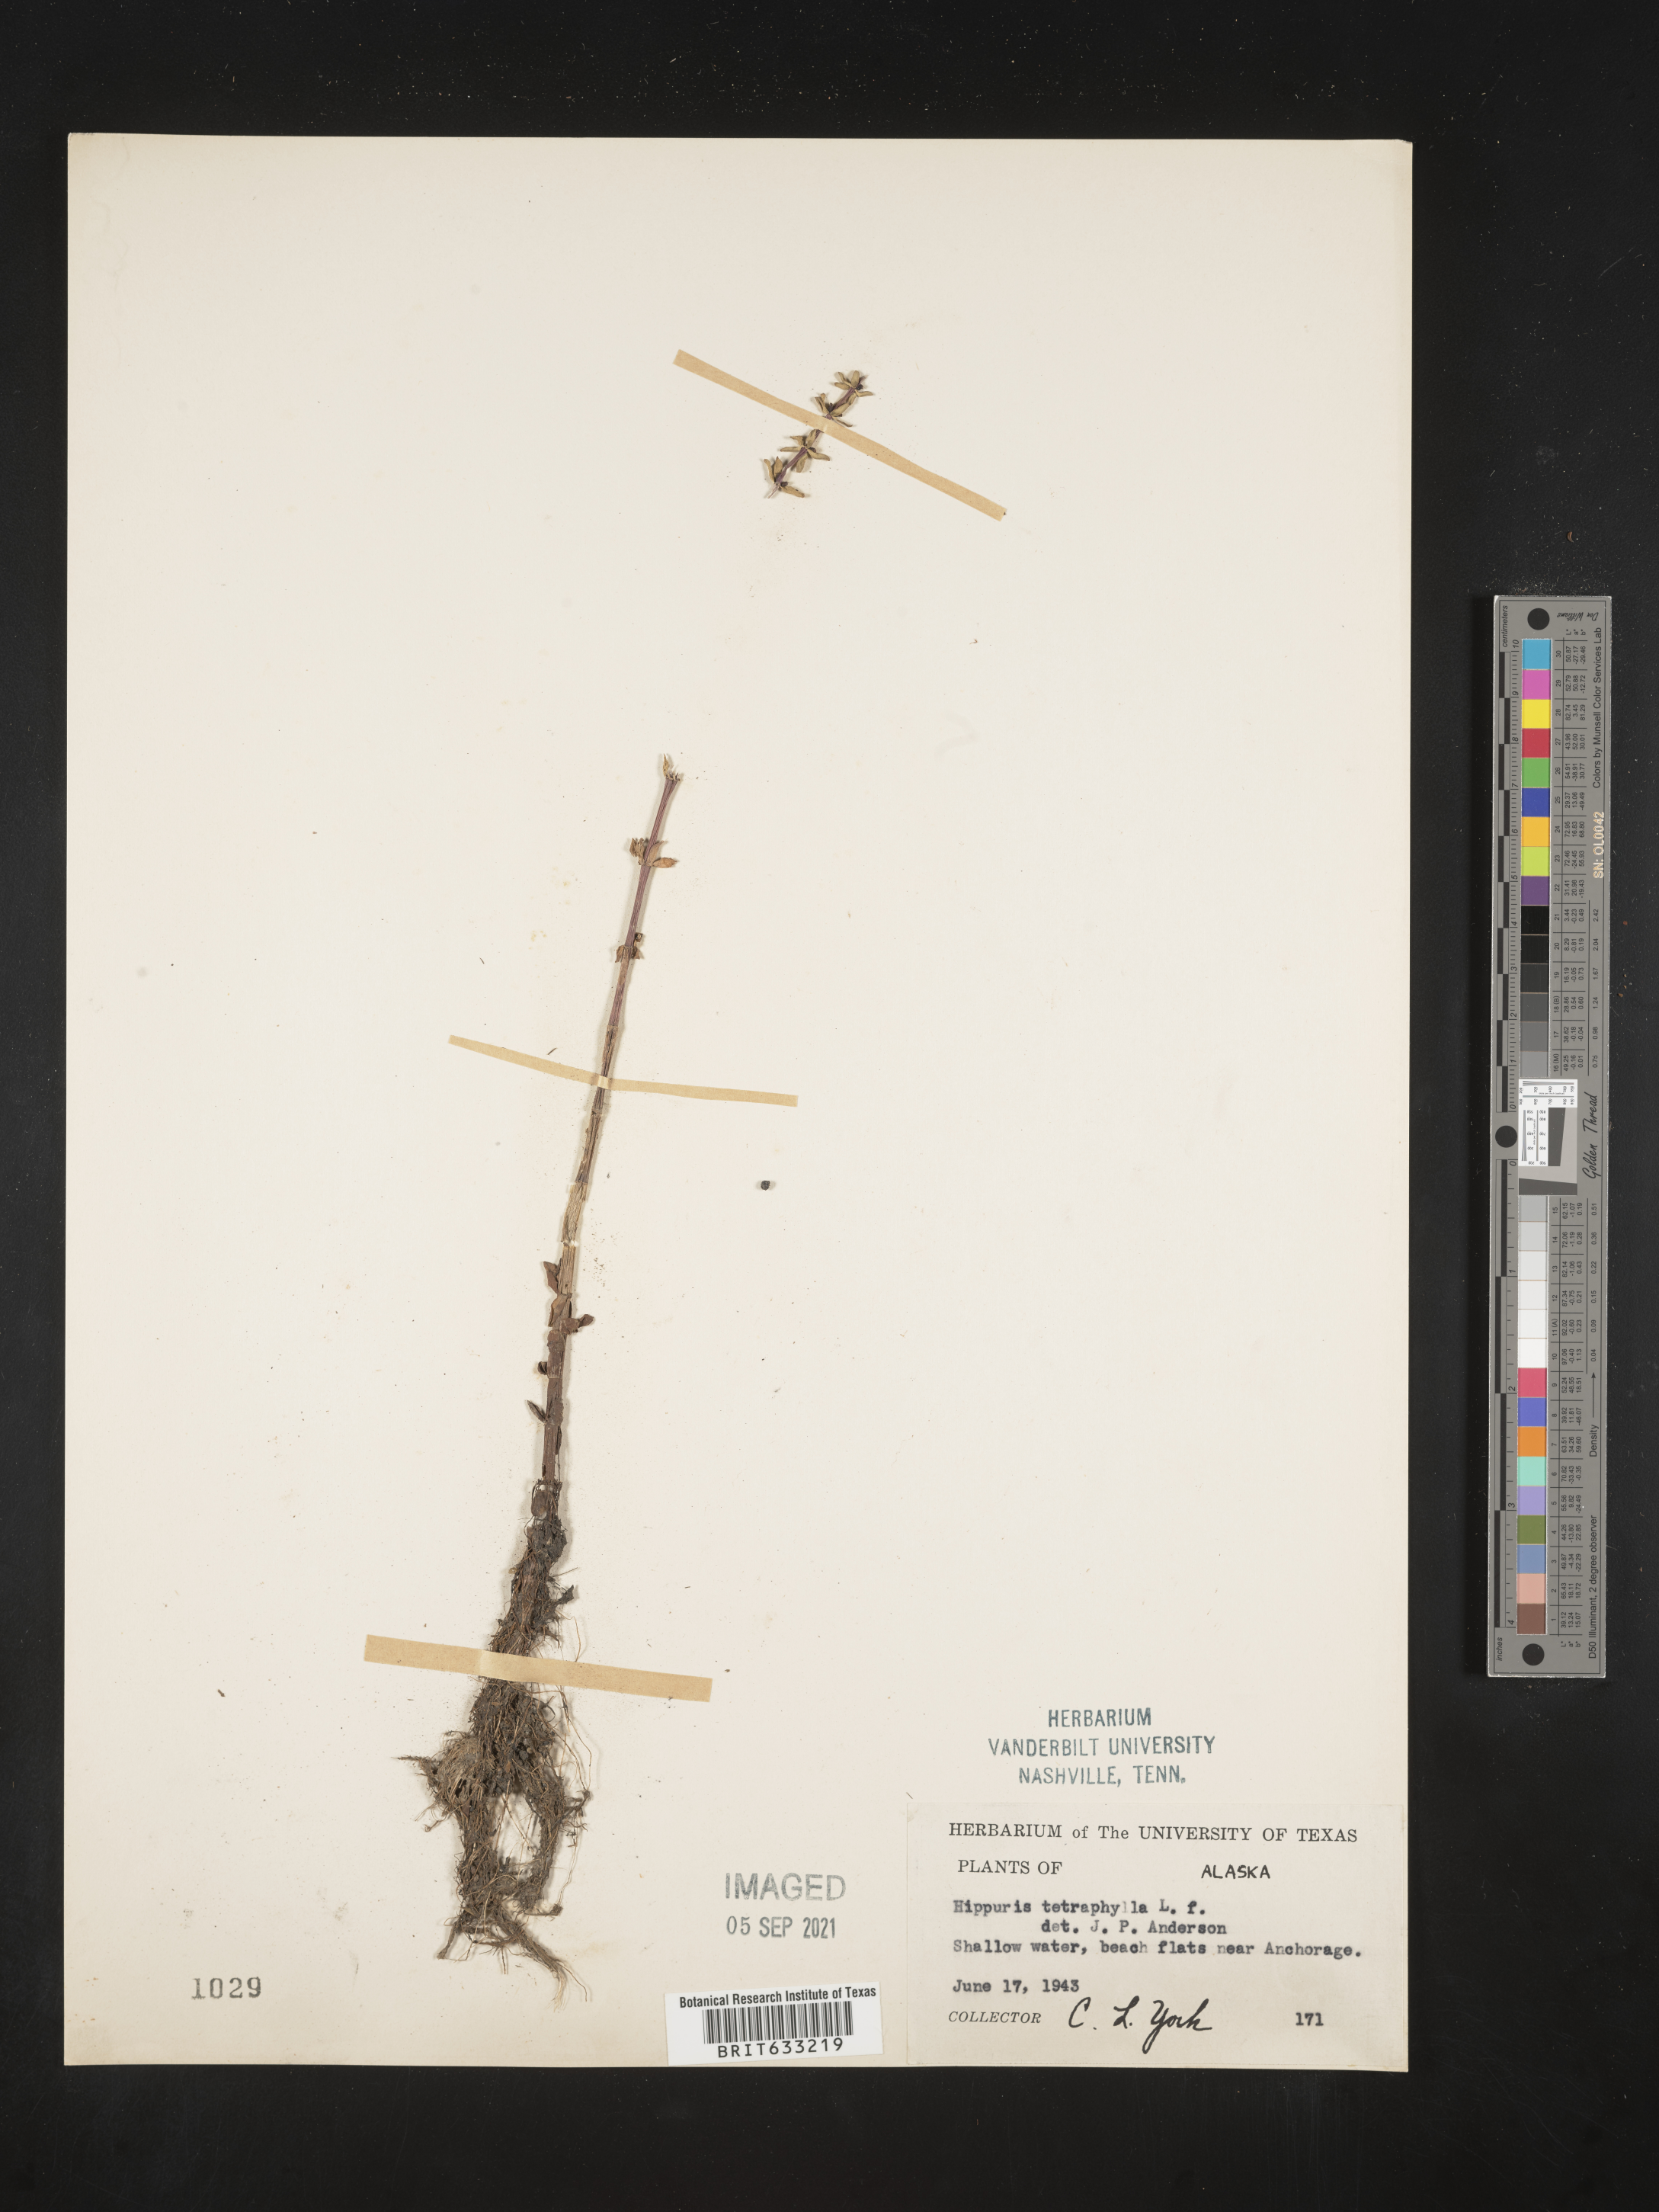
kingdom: Plantae
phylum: Tracheophyta
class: Magnoliopsida
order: Lamiales
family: Plantaginaceae
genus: Hippuris
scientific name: Hippuris tetraphylla
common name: Four-leaved mare's-tail
